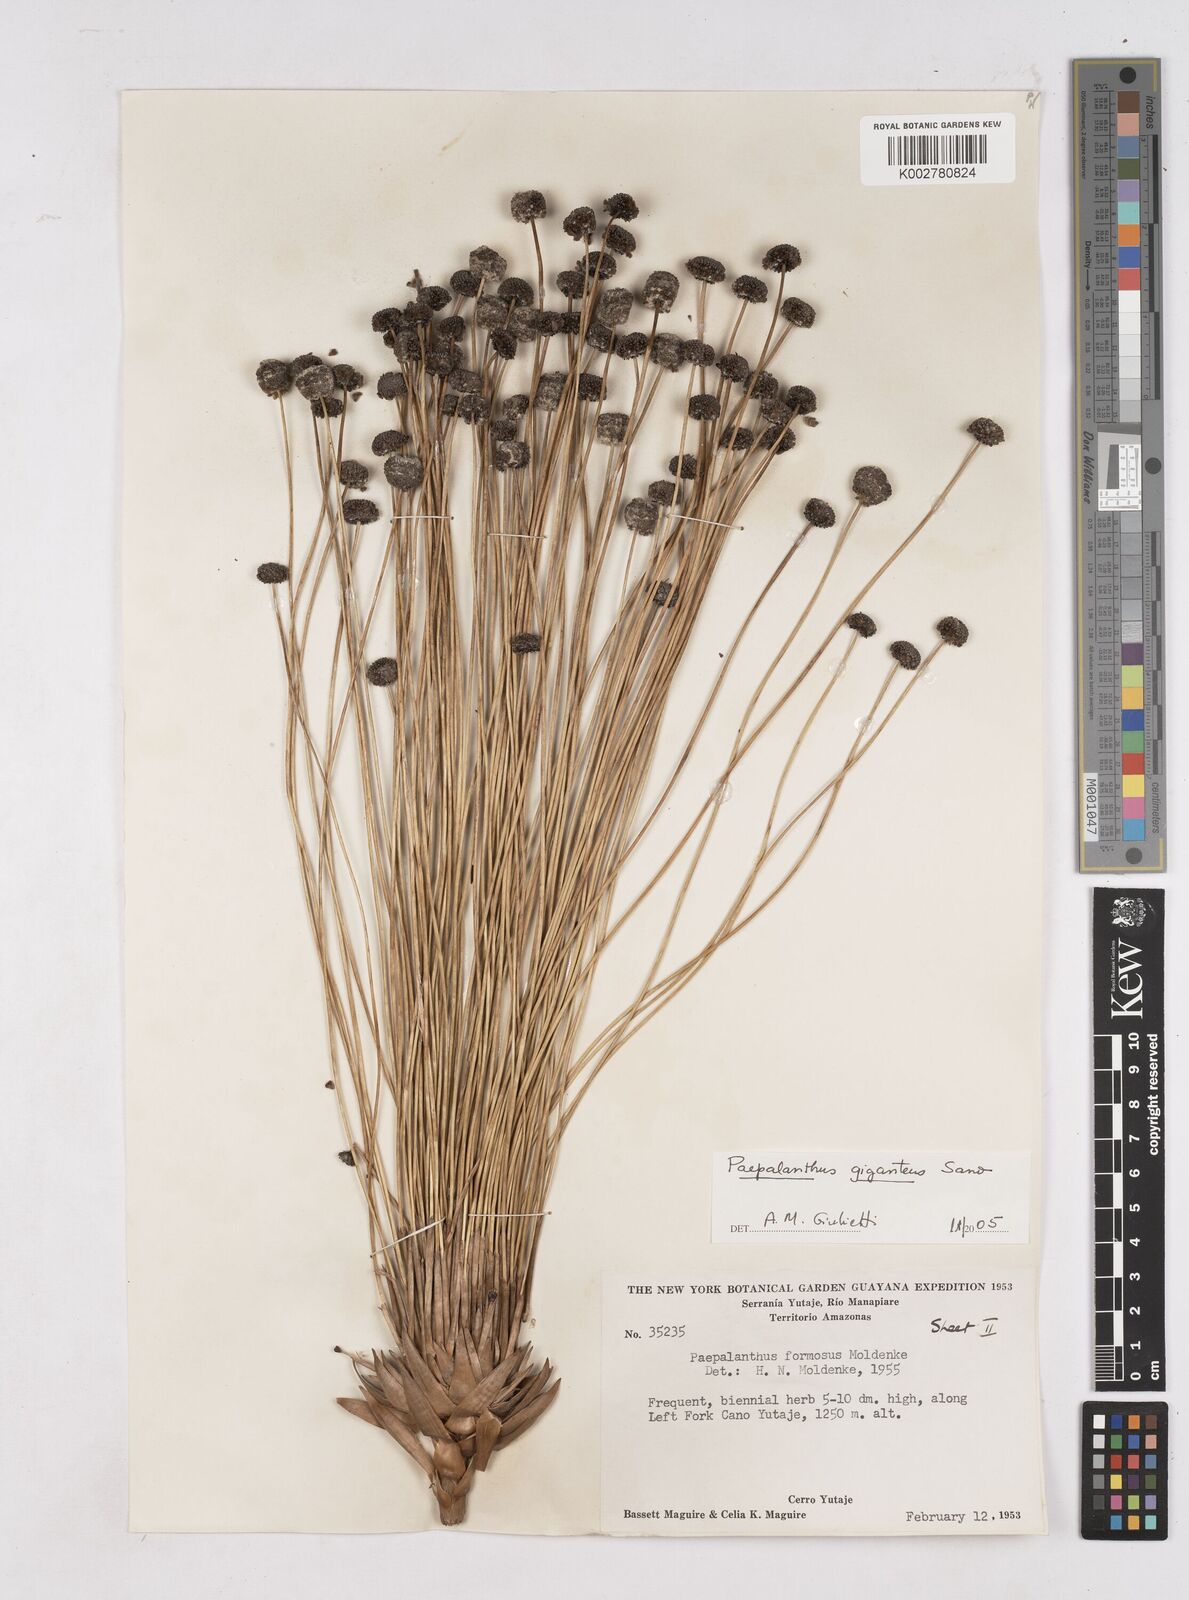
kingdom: Plantae
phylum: Tracheophyta
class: Liliopsida
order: Poales
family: Eriocaulaceae
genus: Paepalanthus
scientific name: Paepalanthus chiquitensis
